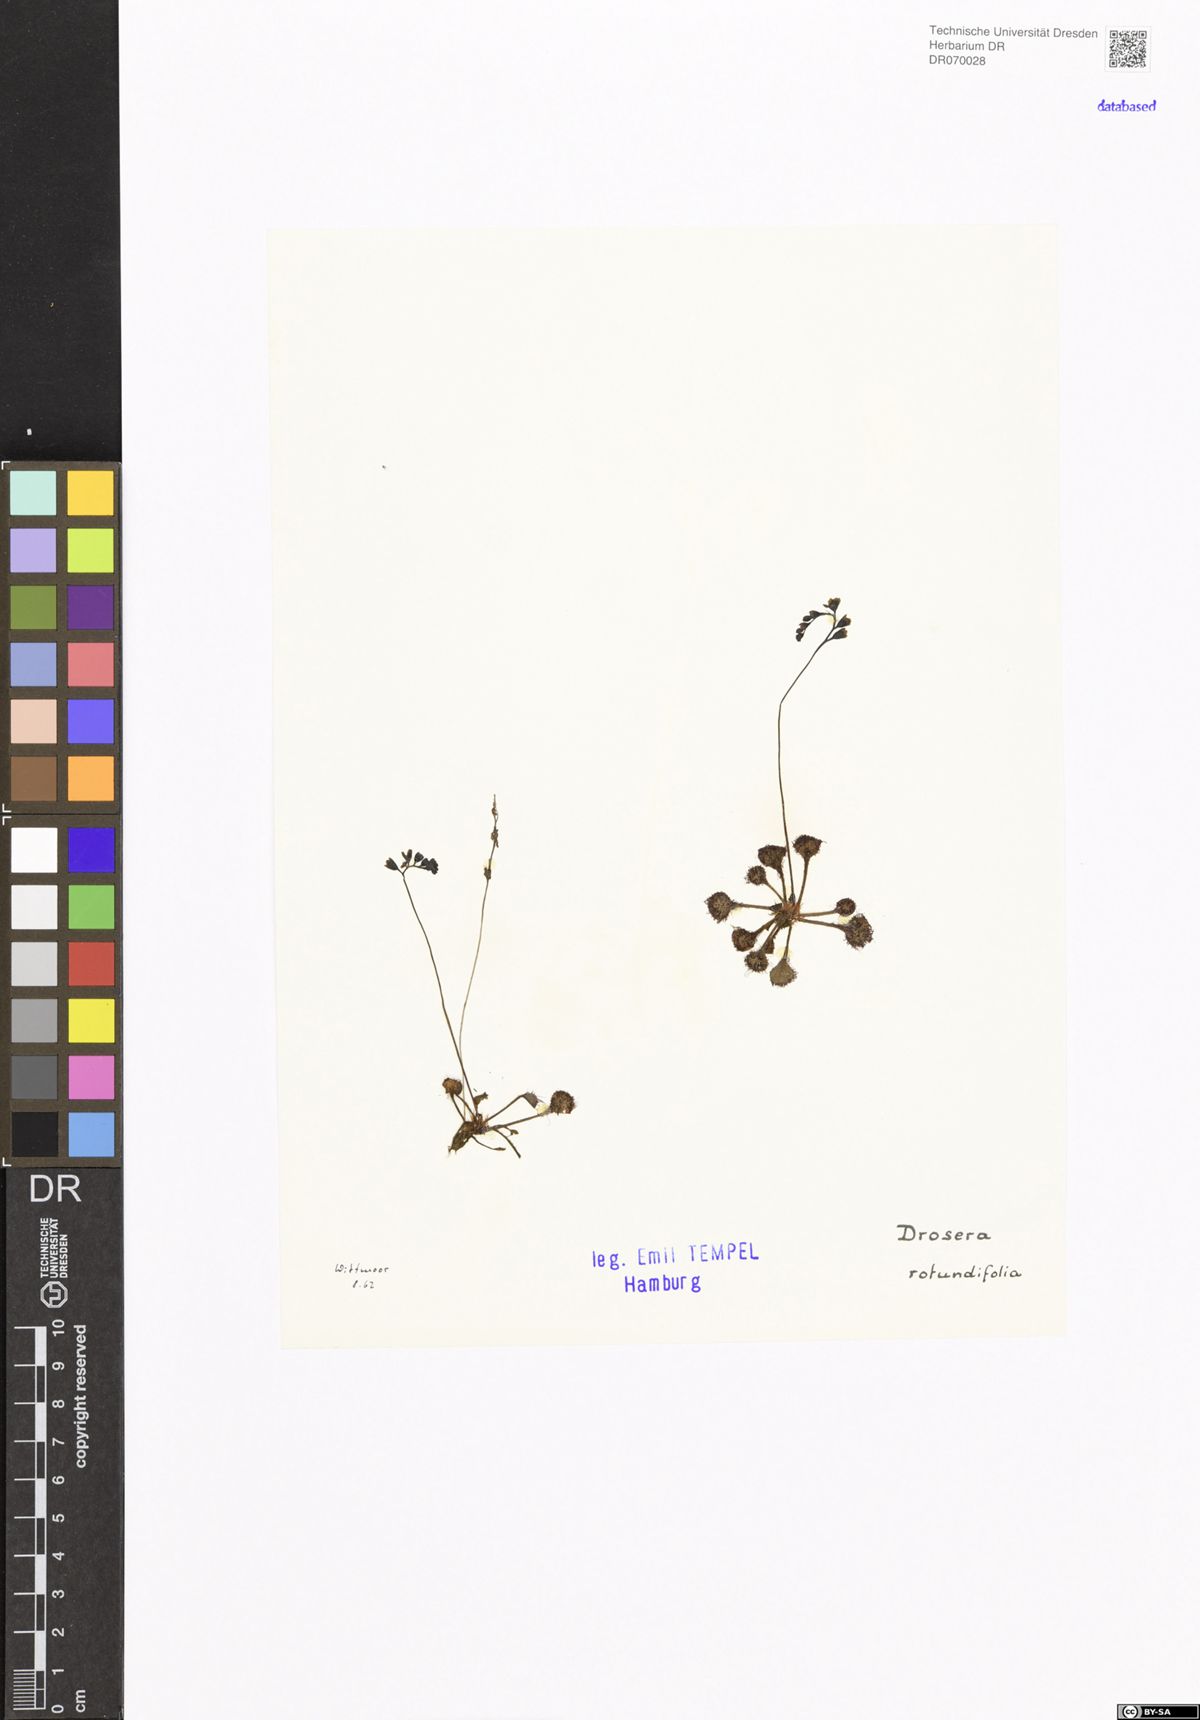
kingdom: Plantae
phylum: Tracheophyta
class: Magnoliopsida
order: Caryophyllales
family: Droseraceae
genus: Drosera
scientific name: Drosera rotundifolia
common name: Round-leaved sundew
